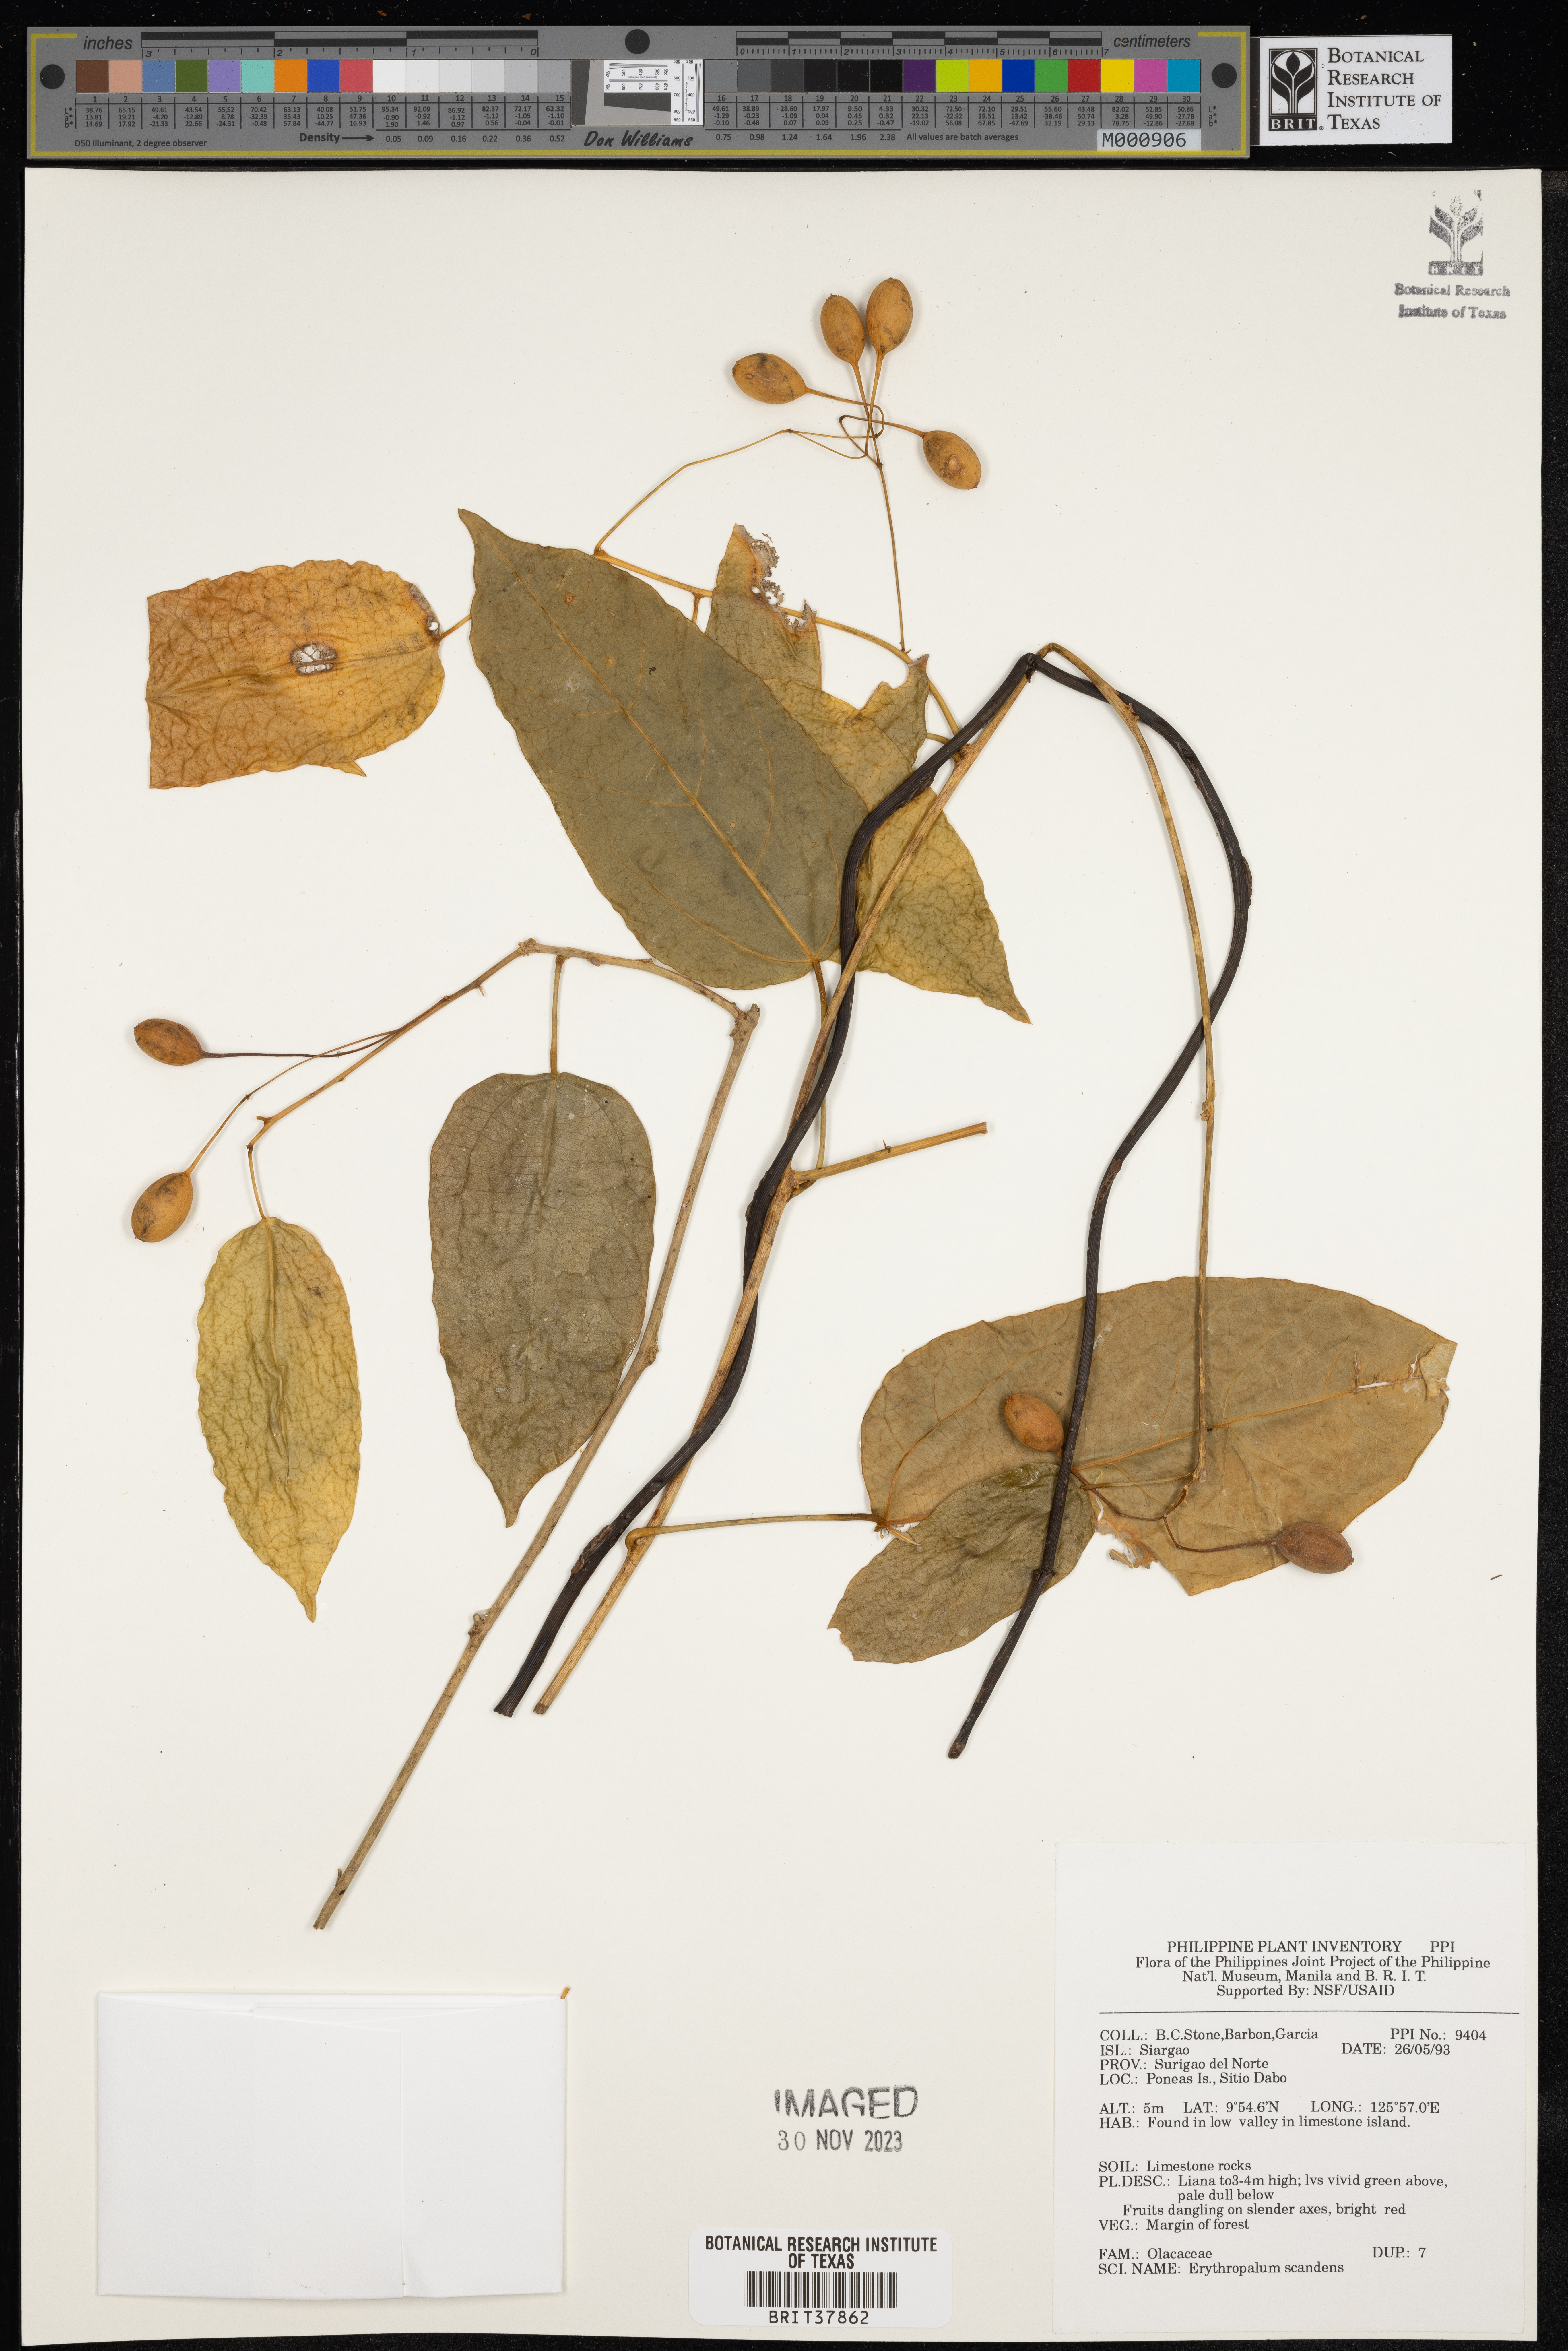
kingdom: Plantae
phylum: Tracheophyta
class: Magnoliopsida
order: Santalales
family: Erythropalaceae
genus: Erythropalum
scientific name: Erythropalum scandens
